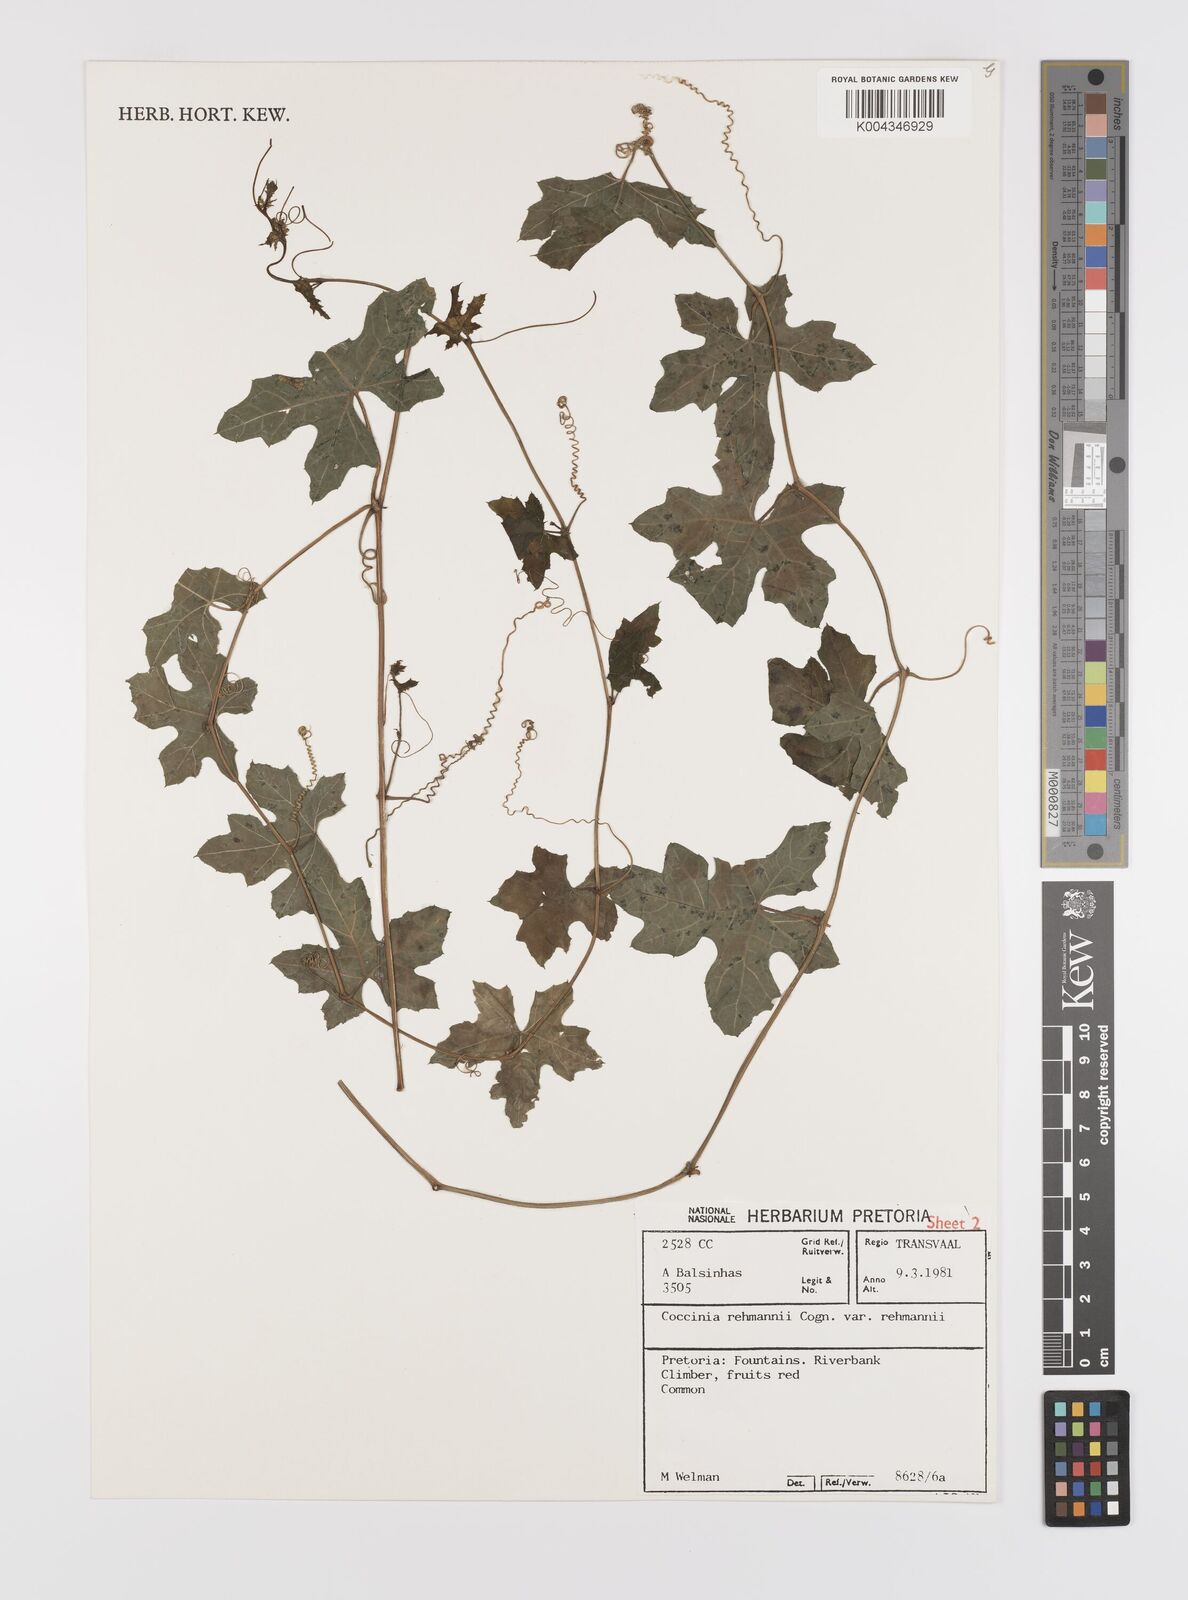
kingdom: Plantae
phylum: Tracheophyta
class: Magnoliopsida
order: Cucurbitales
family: Cucurbitaceae
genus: Coccinia
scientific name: Coccinia rehmannii
